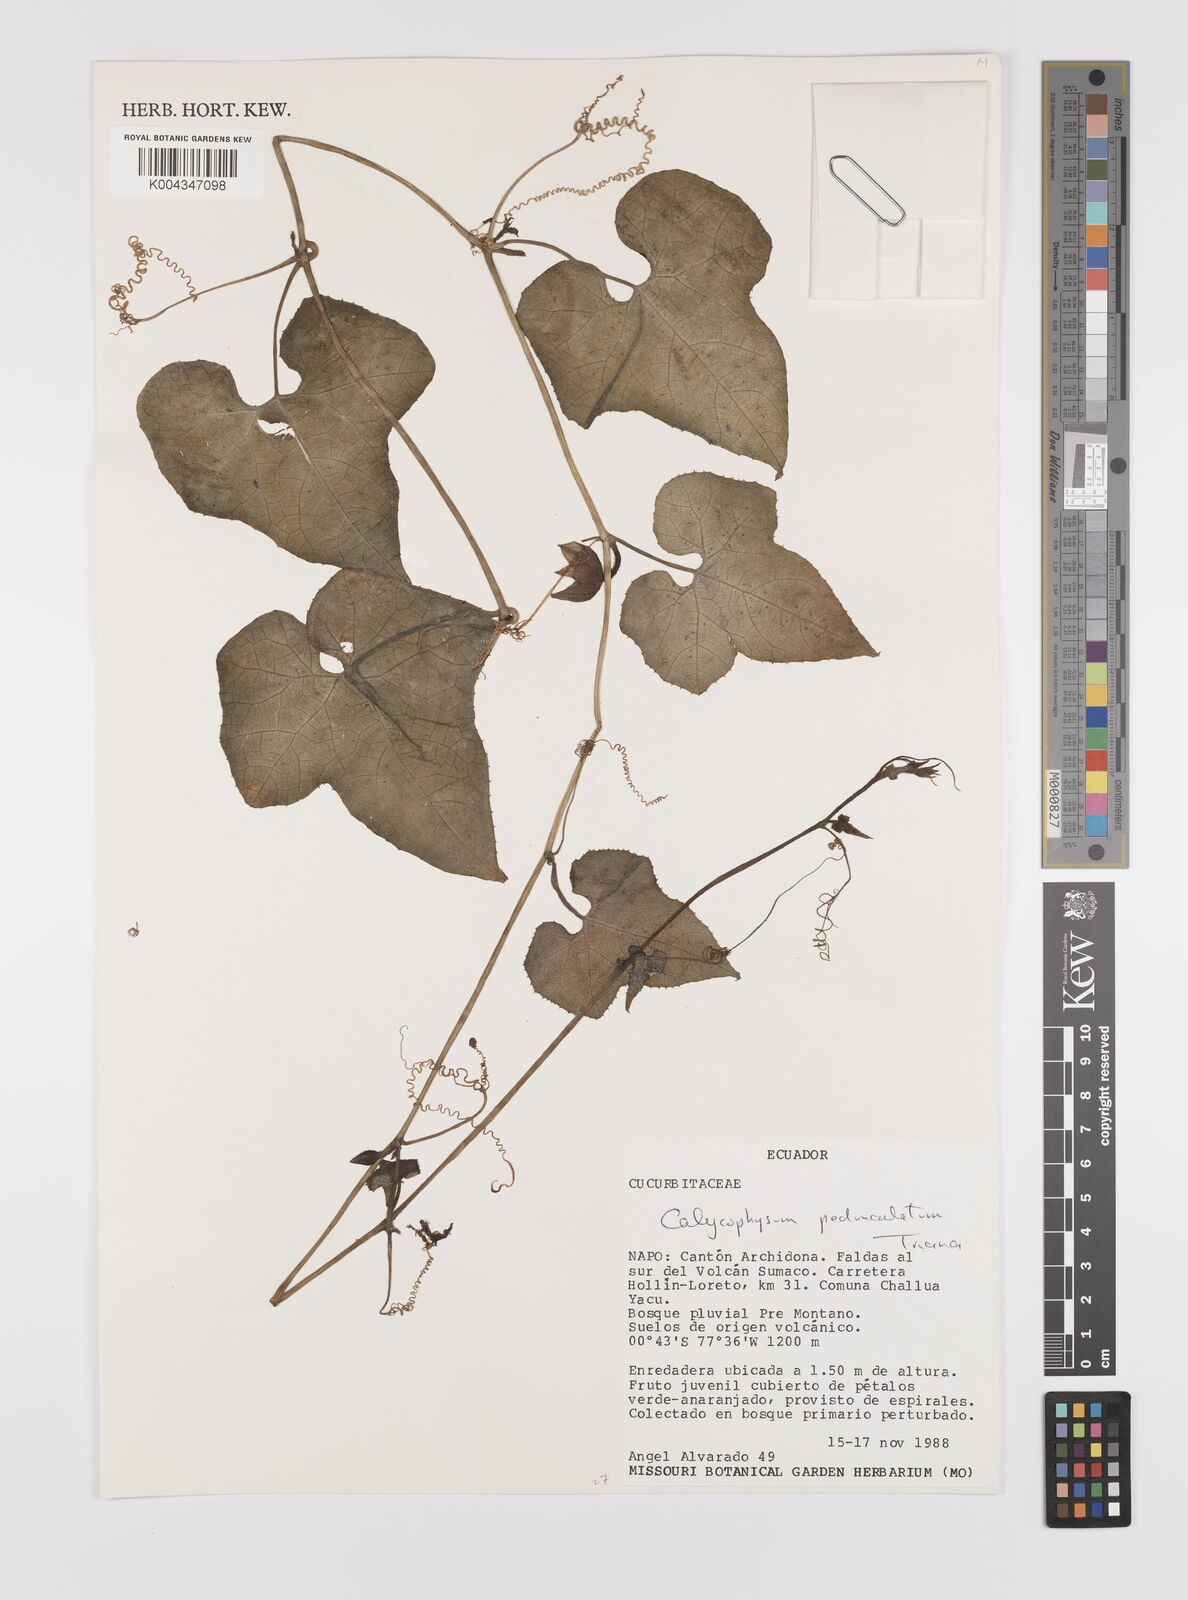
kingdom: Plantae
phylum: Tracheophyta
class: Magnoliopsida
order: Cucurbitales
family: Cucurbitaceae
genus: Calycophysum
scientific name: Calycophysum pedunculatum
